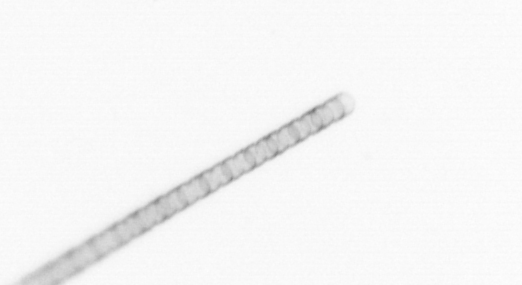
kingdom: Chromista
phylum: Ochrophyta
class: Bacillariophyceae
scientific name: Bacillariophyceae
